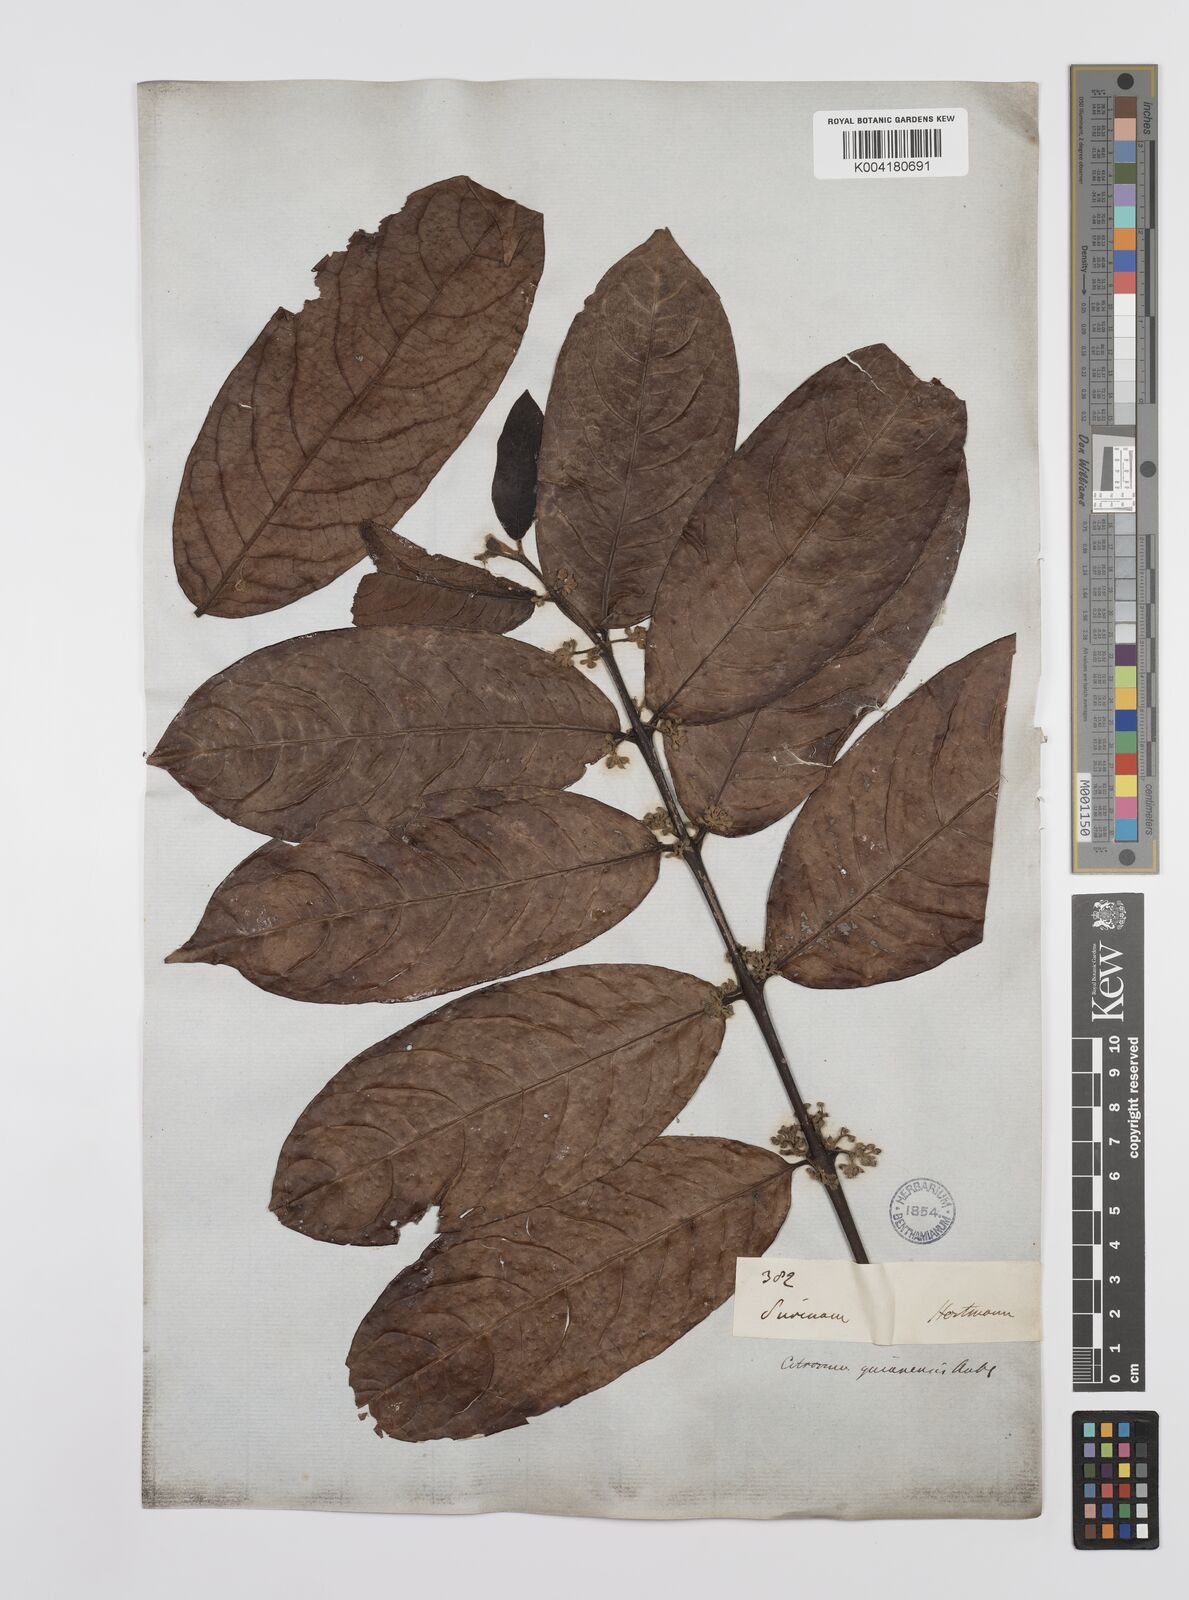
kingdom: Plantae
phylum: Tracheophyta
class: Magnoliopsida
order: Laurales
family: Siparunaceae
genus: Siparuna
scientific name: Siparuna guianensis
